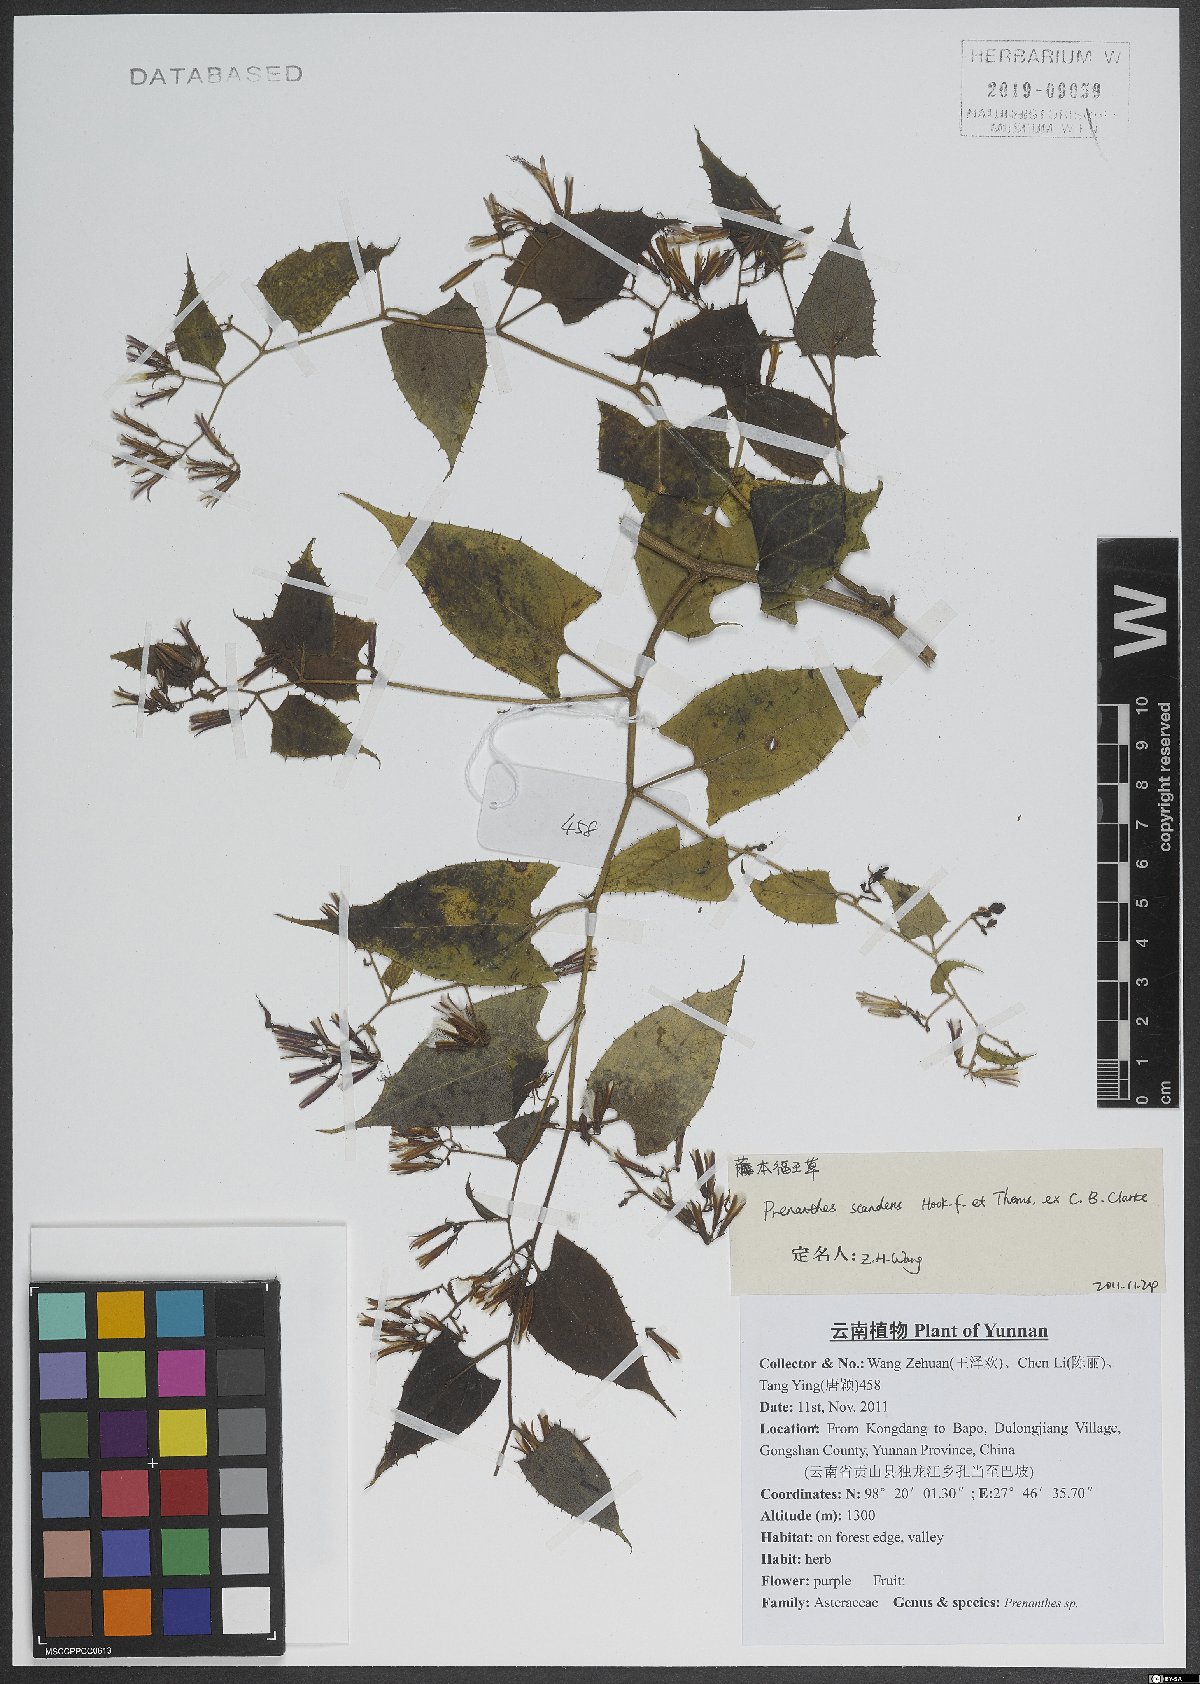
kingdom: Plantae
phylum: Tracheophyta
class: Magnoliopsida
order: Asterales
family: Asteraceae
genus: Notoseris
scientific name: Notoseris scandens
